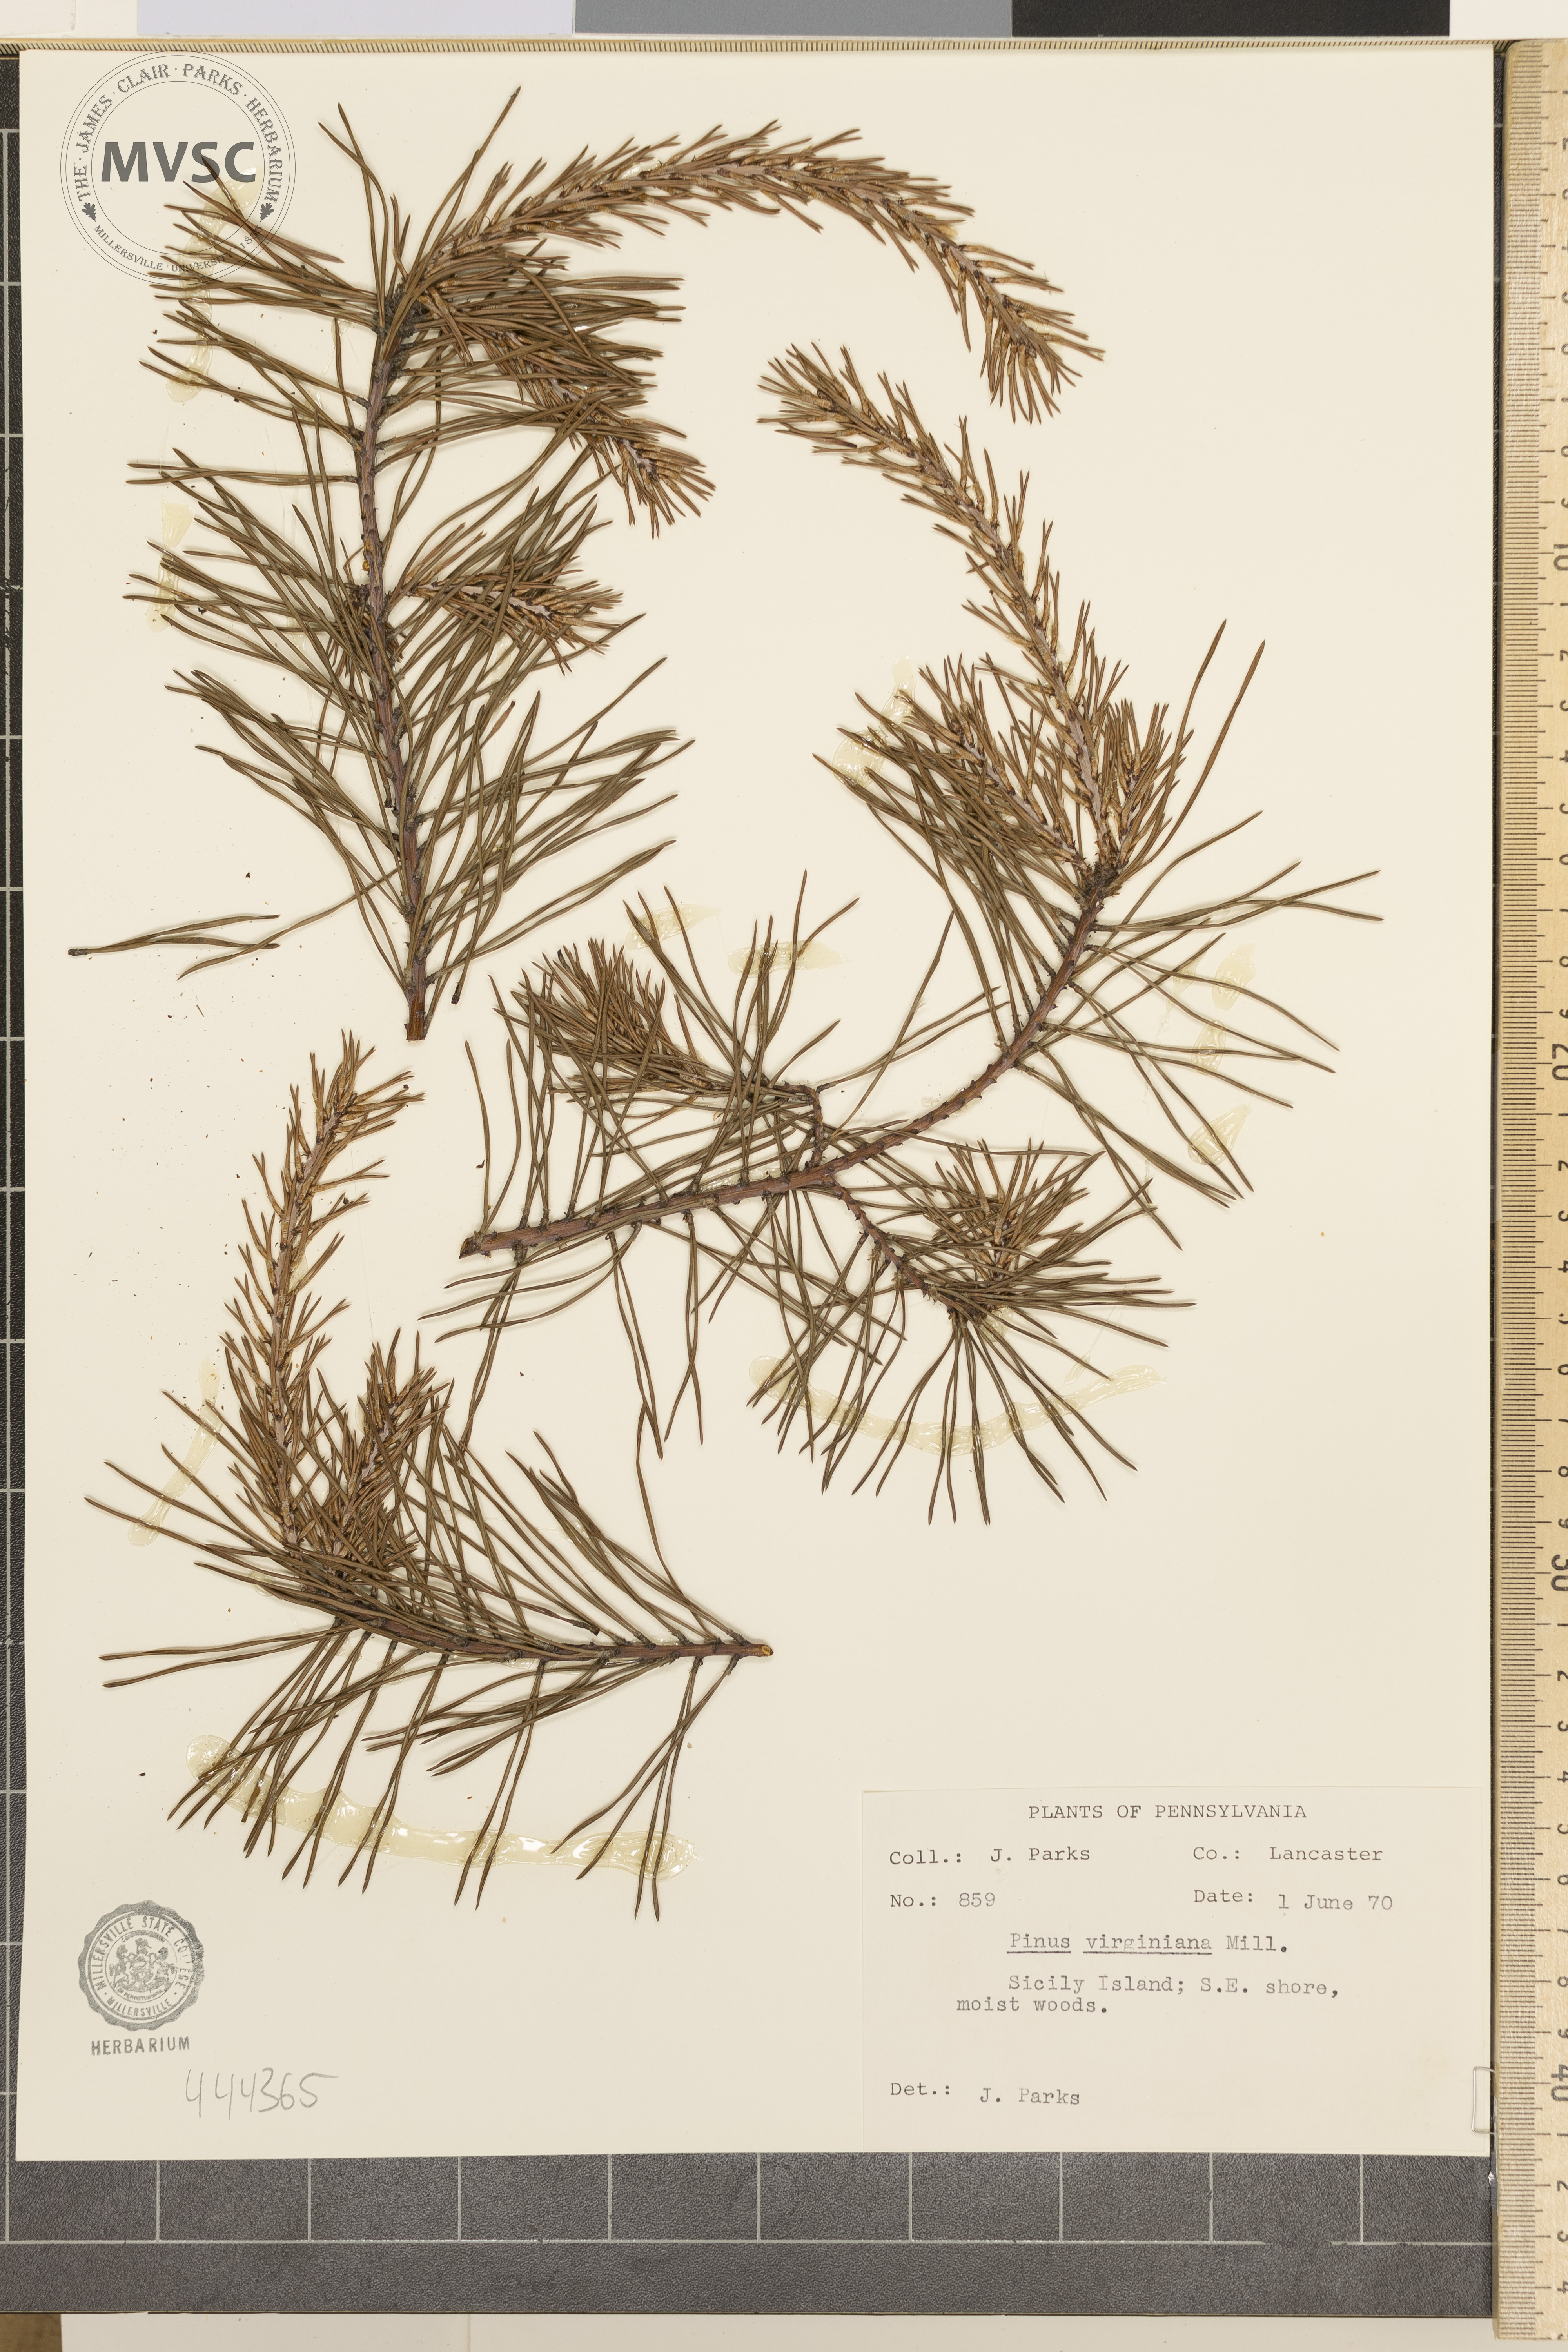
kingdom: Plantae
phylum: Tracheophyta
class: Pinopsida
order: Pinales
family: Pinaceae
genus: Pinus
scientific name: Pinus virginiana
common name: Scrub pine
